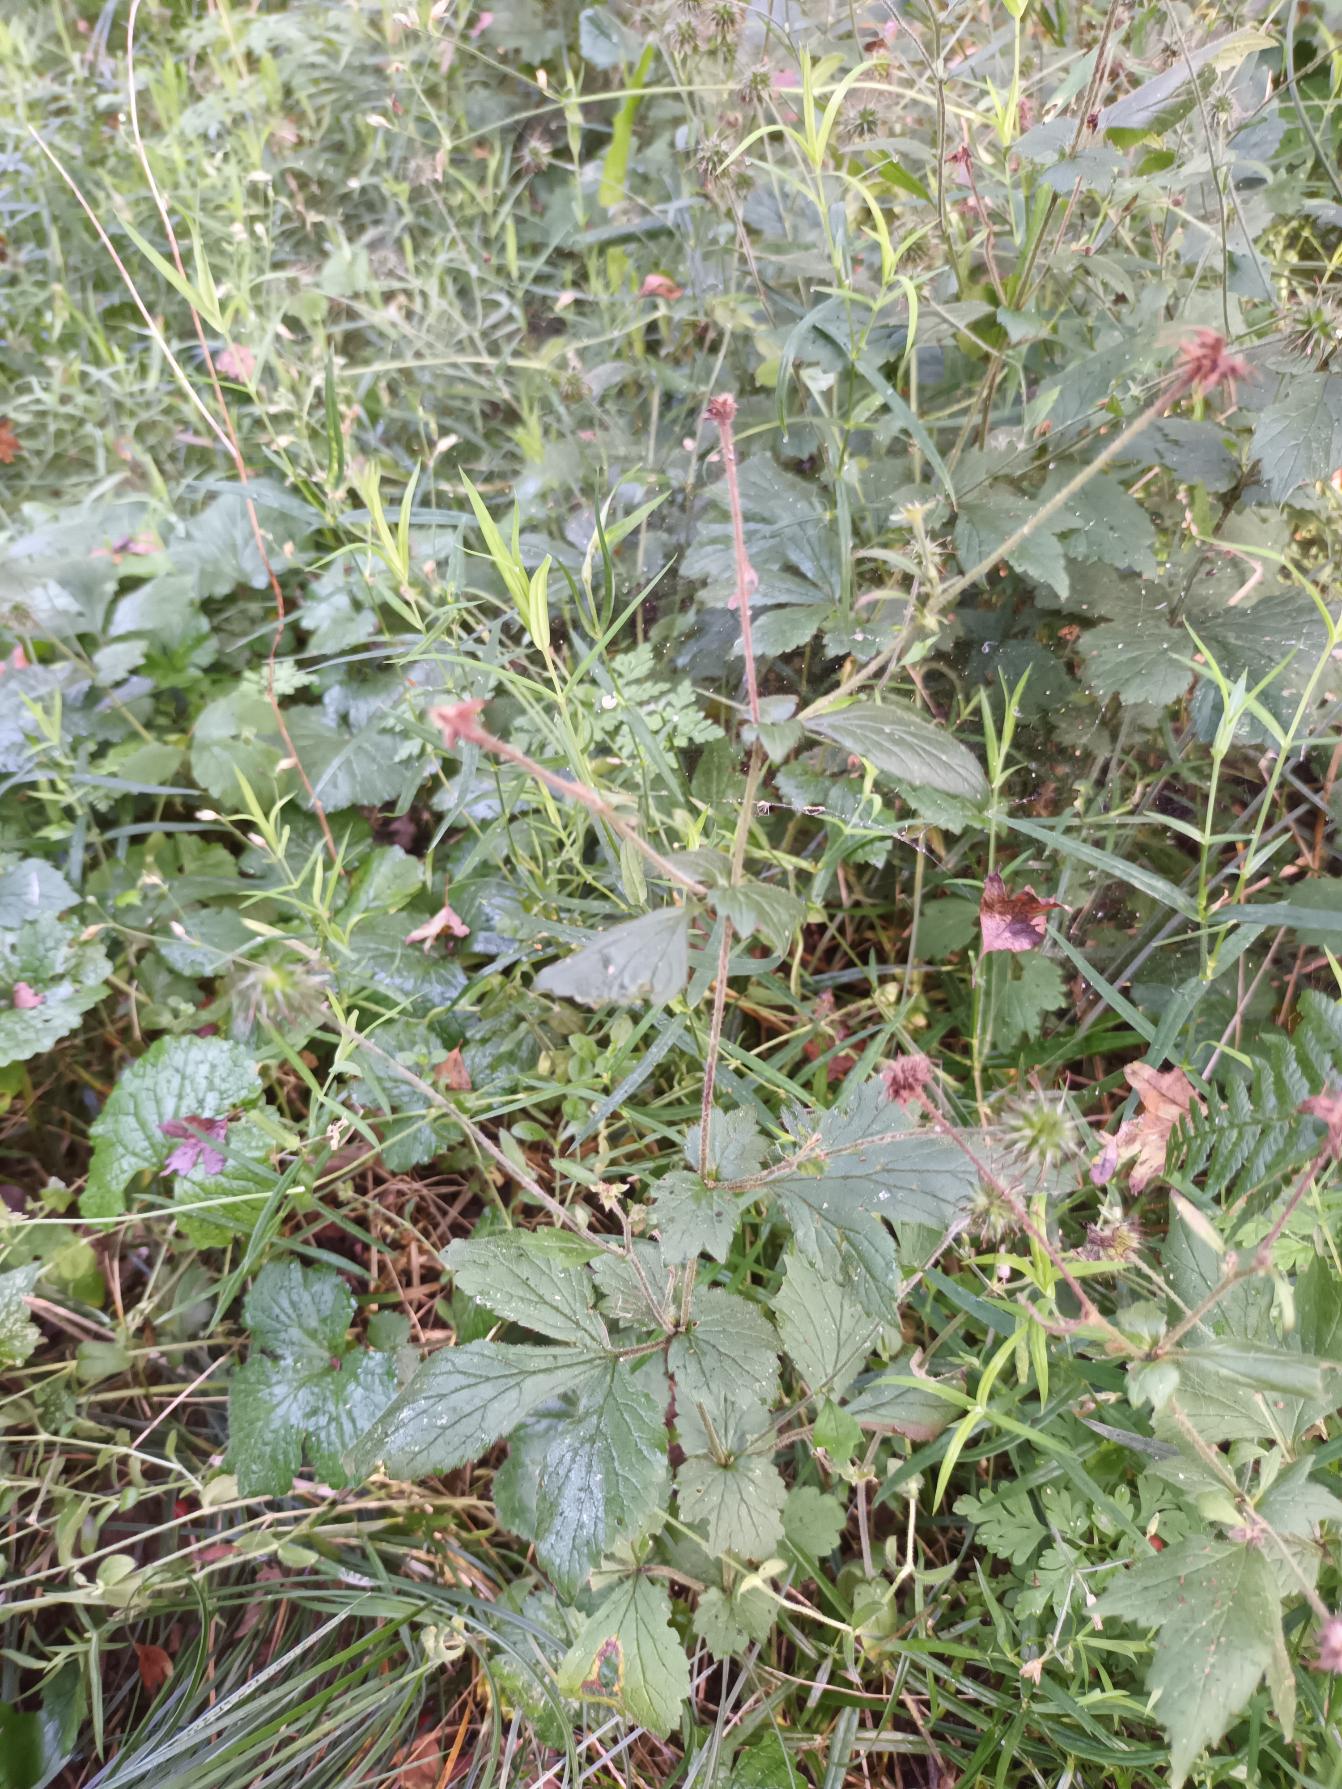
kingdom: Plantae
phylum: Tracheophyta
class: Magnoliopsida
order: Rosales
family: Rosaceae
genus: Geum
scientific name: Geum urbanum
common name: Feber-nellikerod
